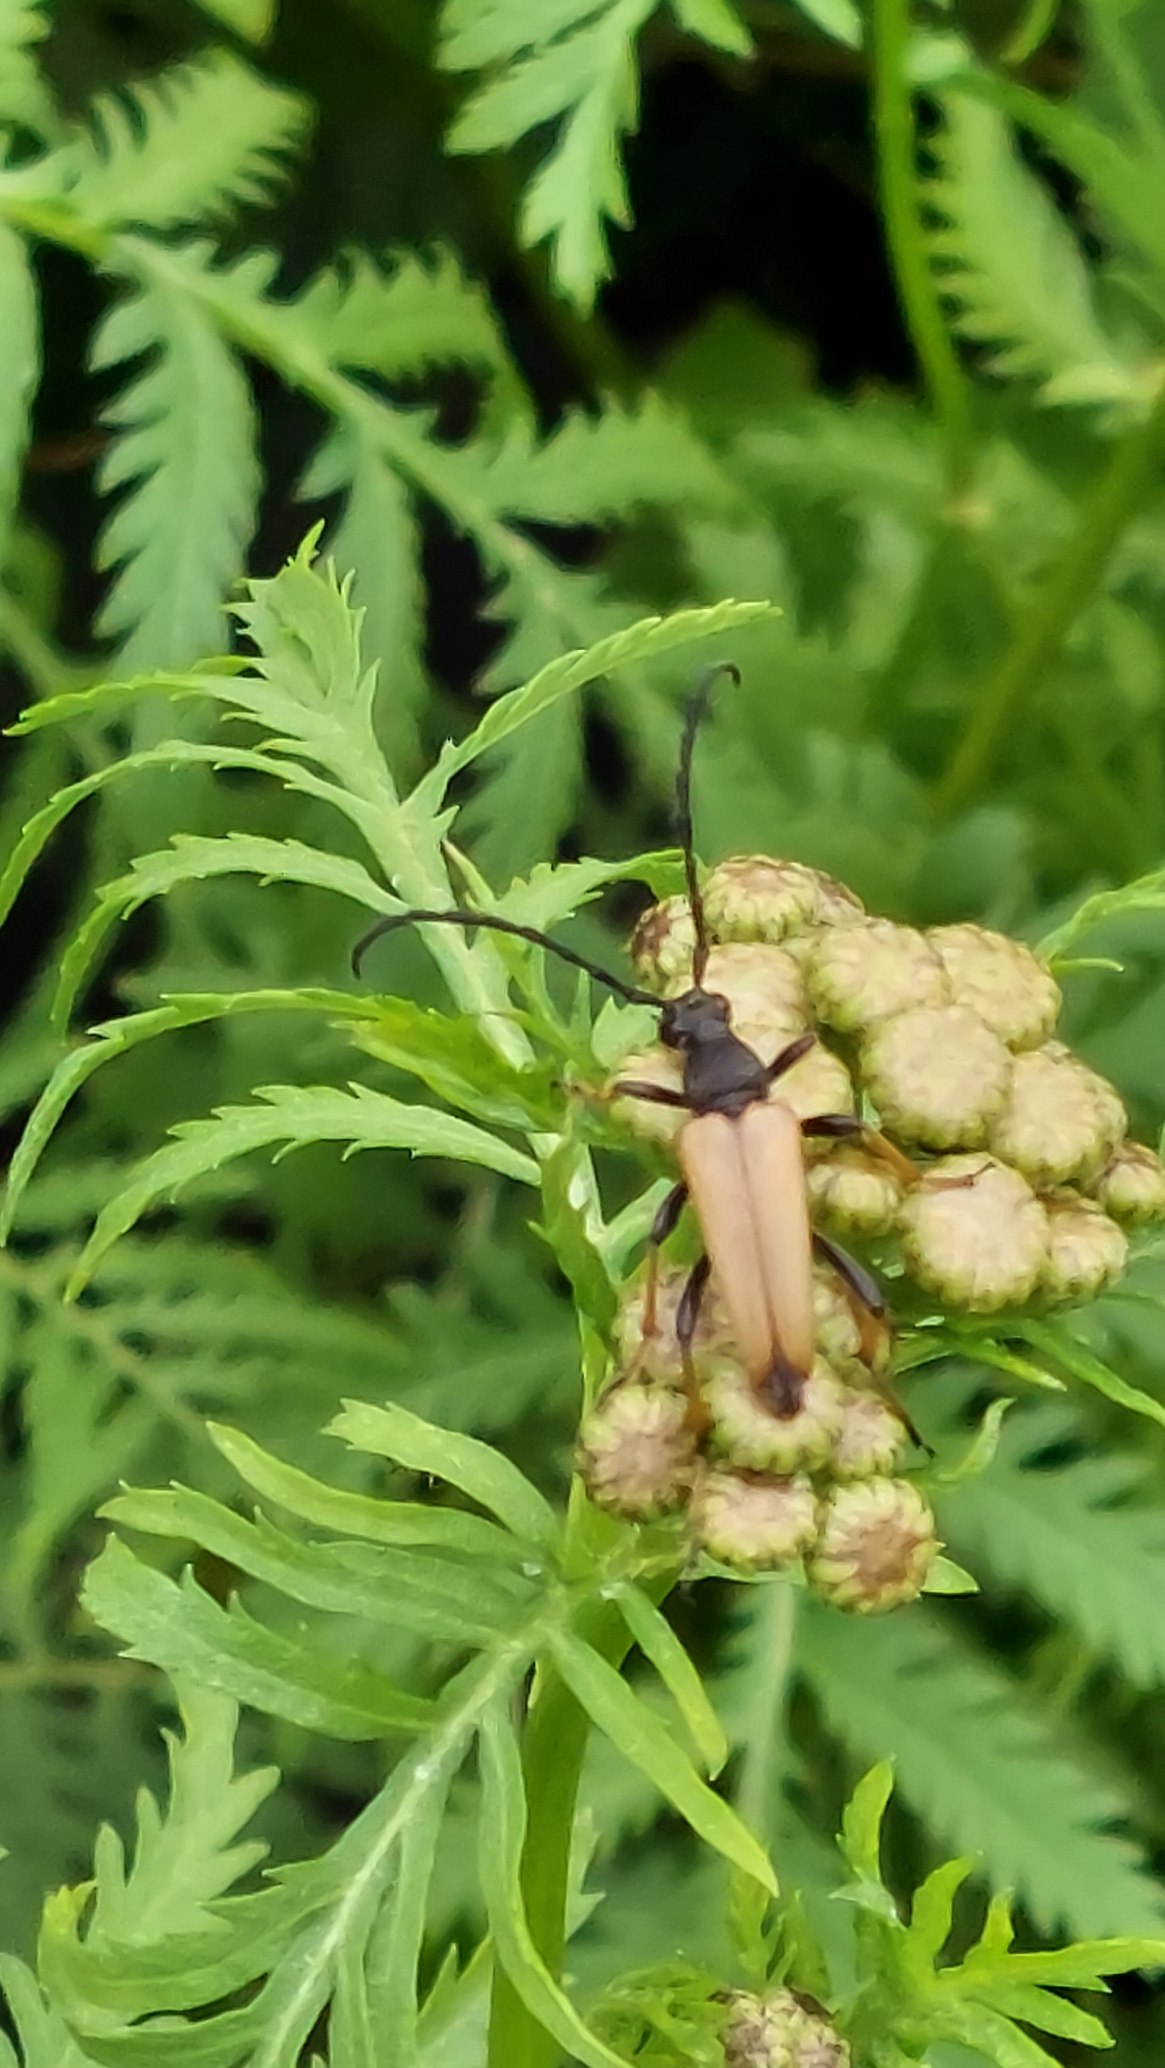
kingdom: Animalia
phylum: Arthropoda
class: Insecta
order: Coleoptera
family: Cerambycidae
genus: Stictoleptura
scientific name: Stictoleptura rubra
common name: Rød blomsterbuk
